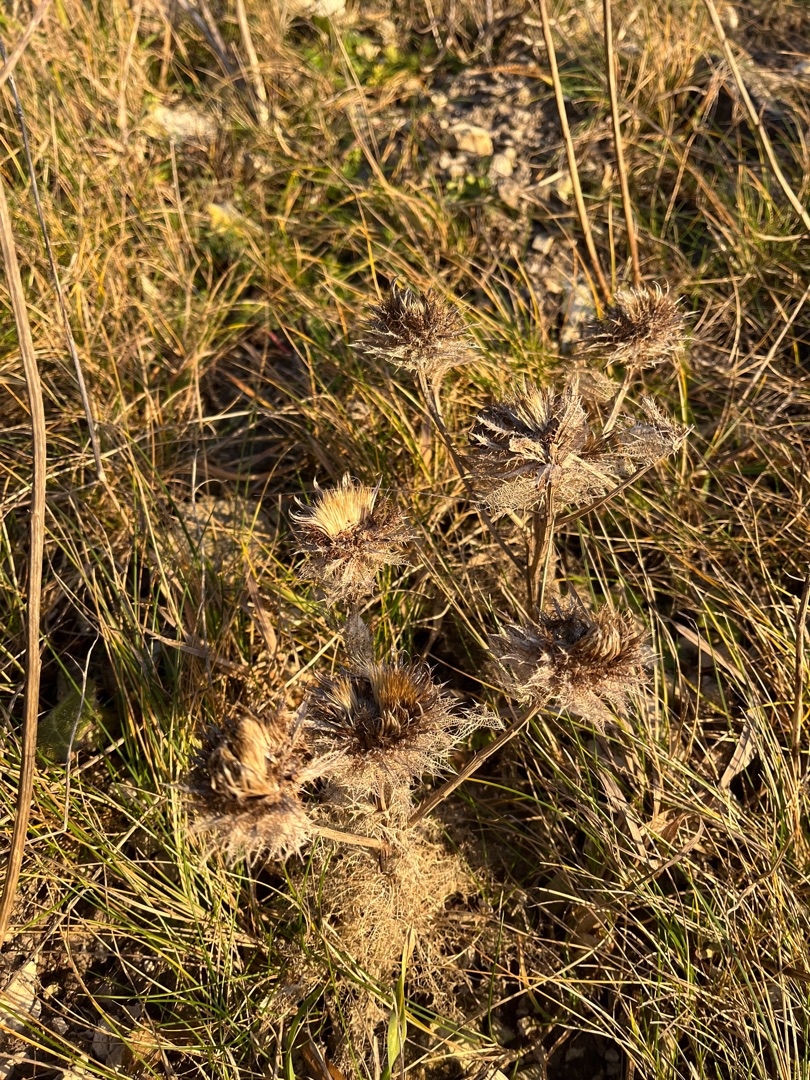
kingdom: Plantae
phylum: Tracheophyta
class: Magnoliopsida
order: Asterales
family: Asteraceae
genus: Carlina
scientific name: Carlina vulgaris
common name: Bakketidsel
